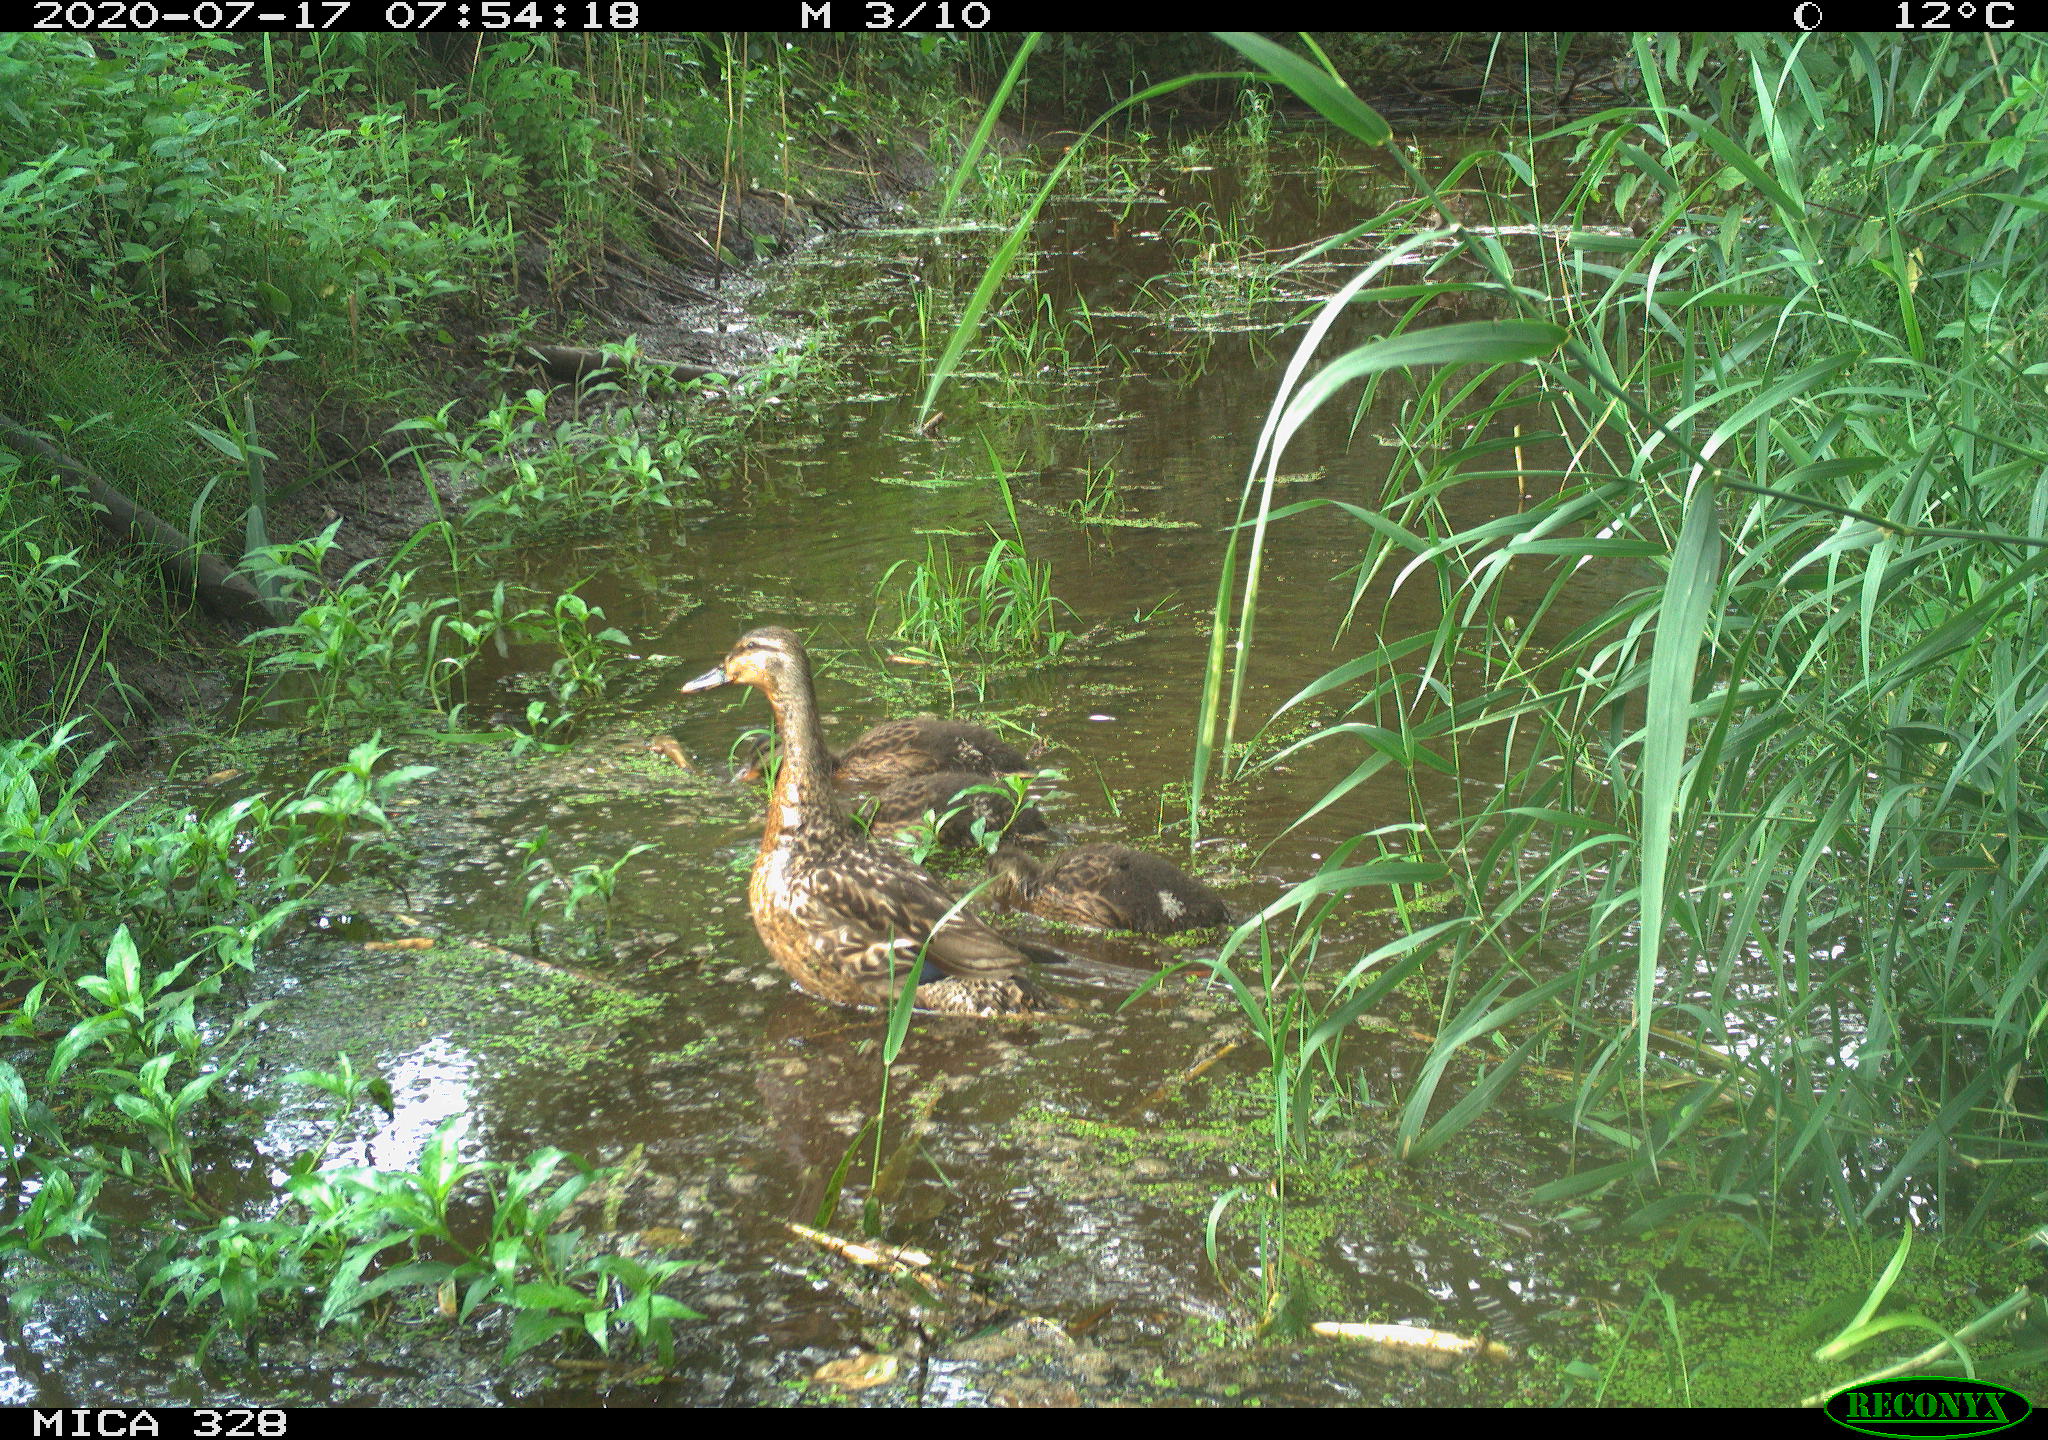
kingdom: Animalia
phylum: Chordata
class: Aves
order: Anseriformes
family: Anatidae
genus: Anas
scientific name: Anas platyrhynchos
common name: Mallard
